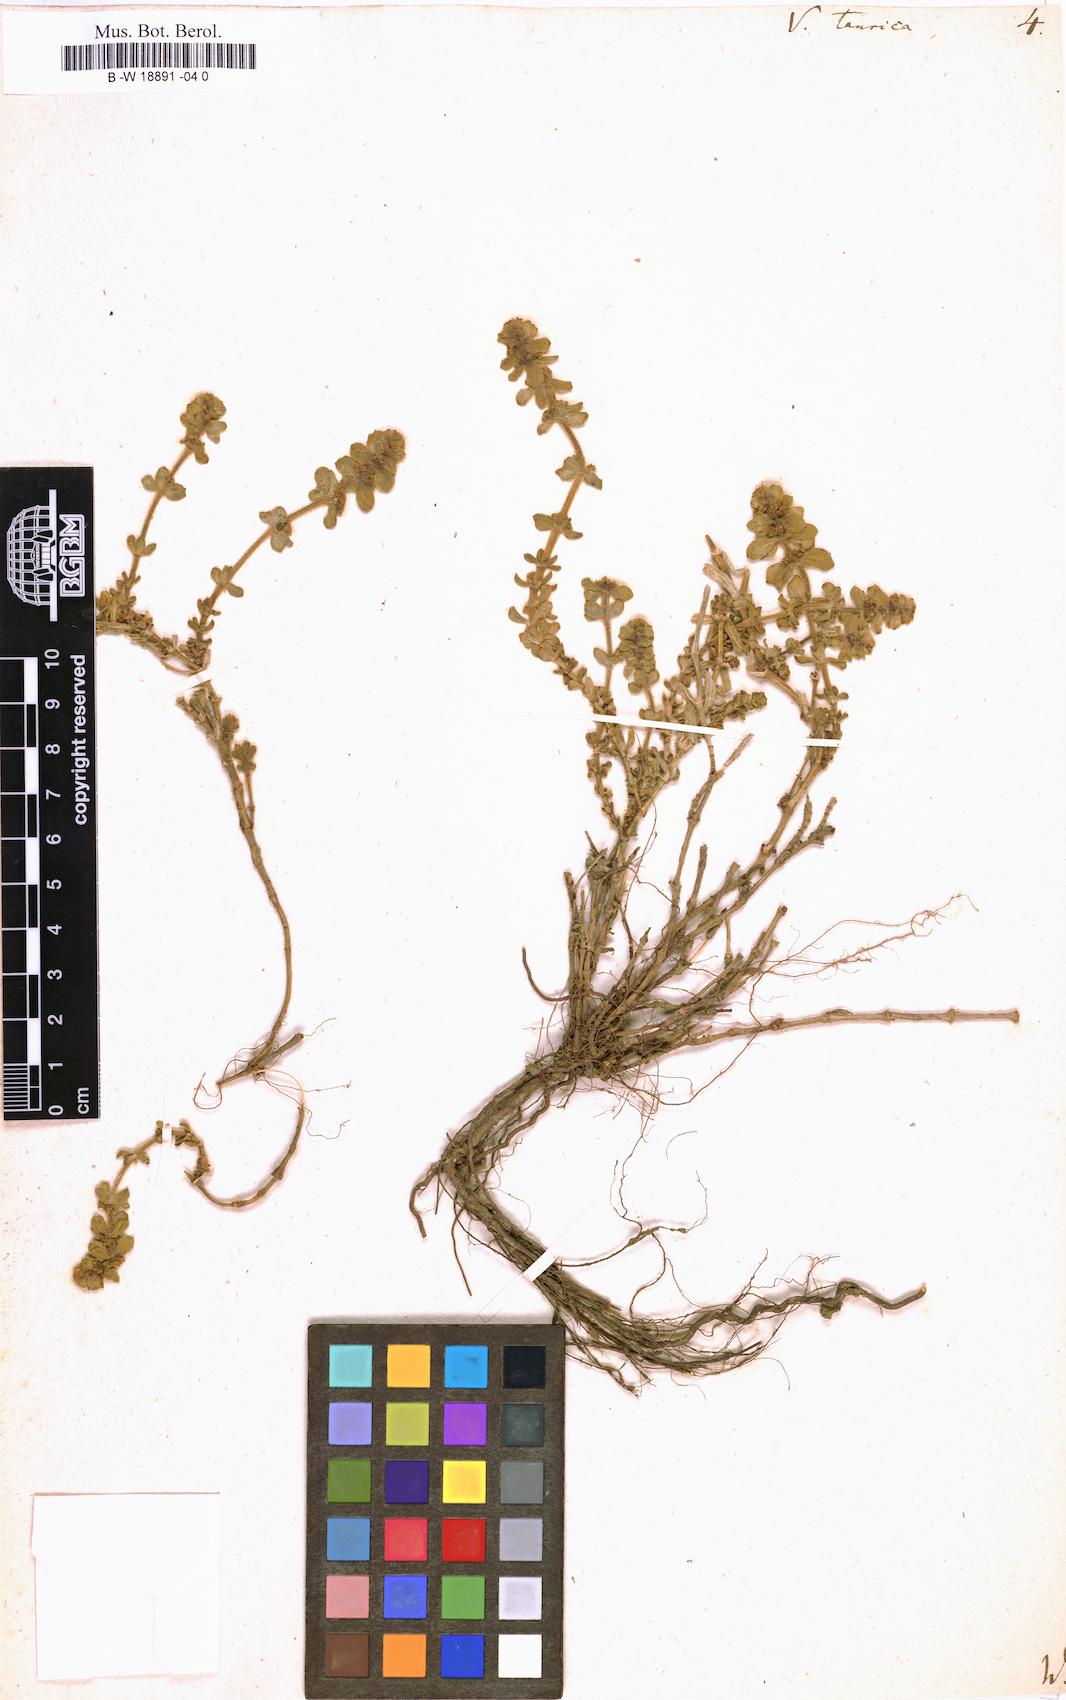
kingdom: Plantae
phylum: Tracheophyta
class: Magnoliopsida
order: Gentianales
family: Rubiaceae
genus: Cruciata
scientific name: Cruciata taurica
